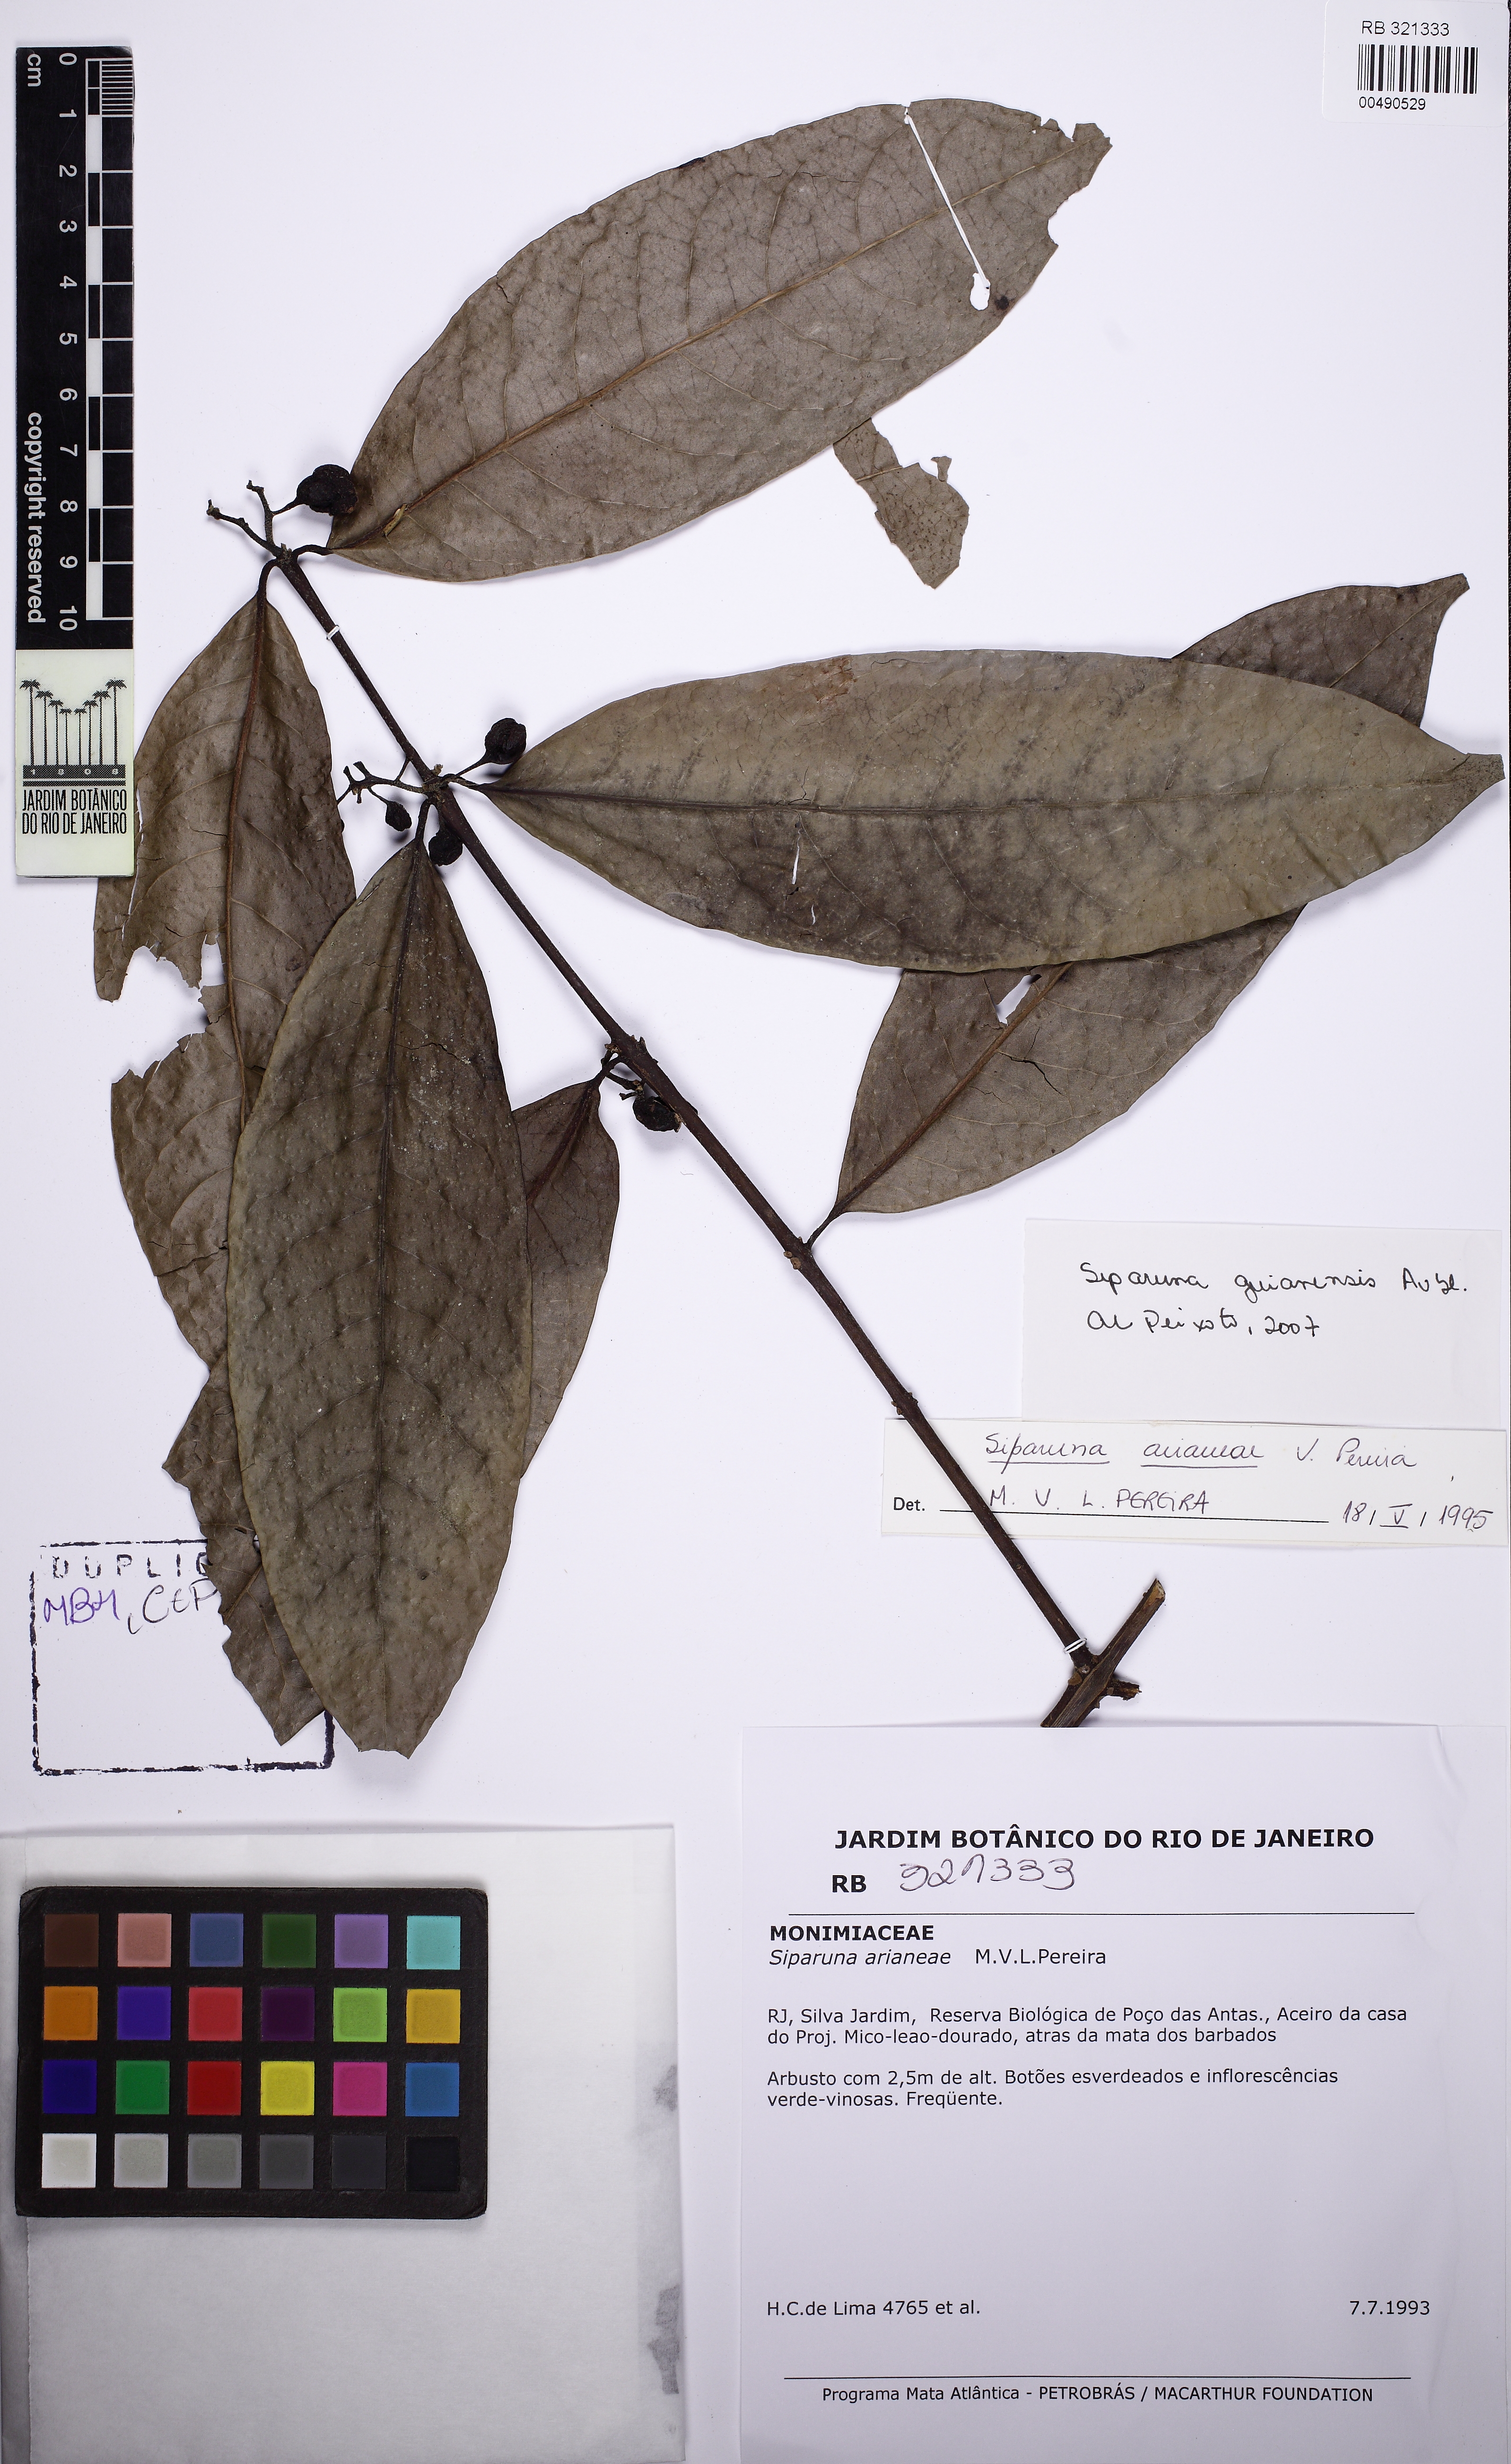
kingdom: Plantae
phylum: Tracheophyta
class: Magnoliopsida
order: Laurales
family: Siparunaceae
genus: Siparuna
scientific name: Siparuna guianensis
